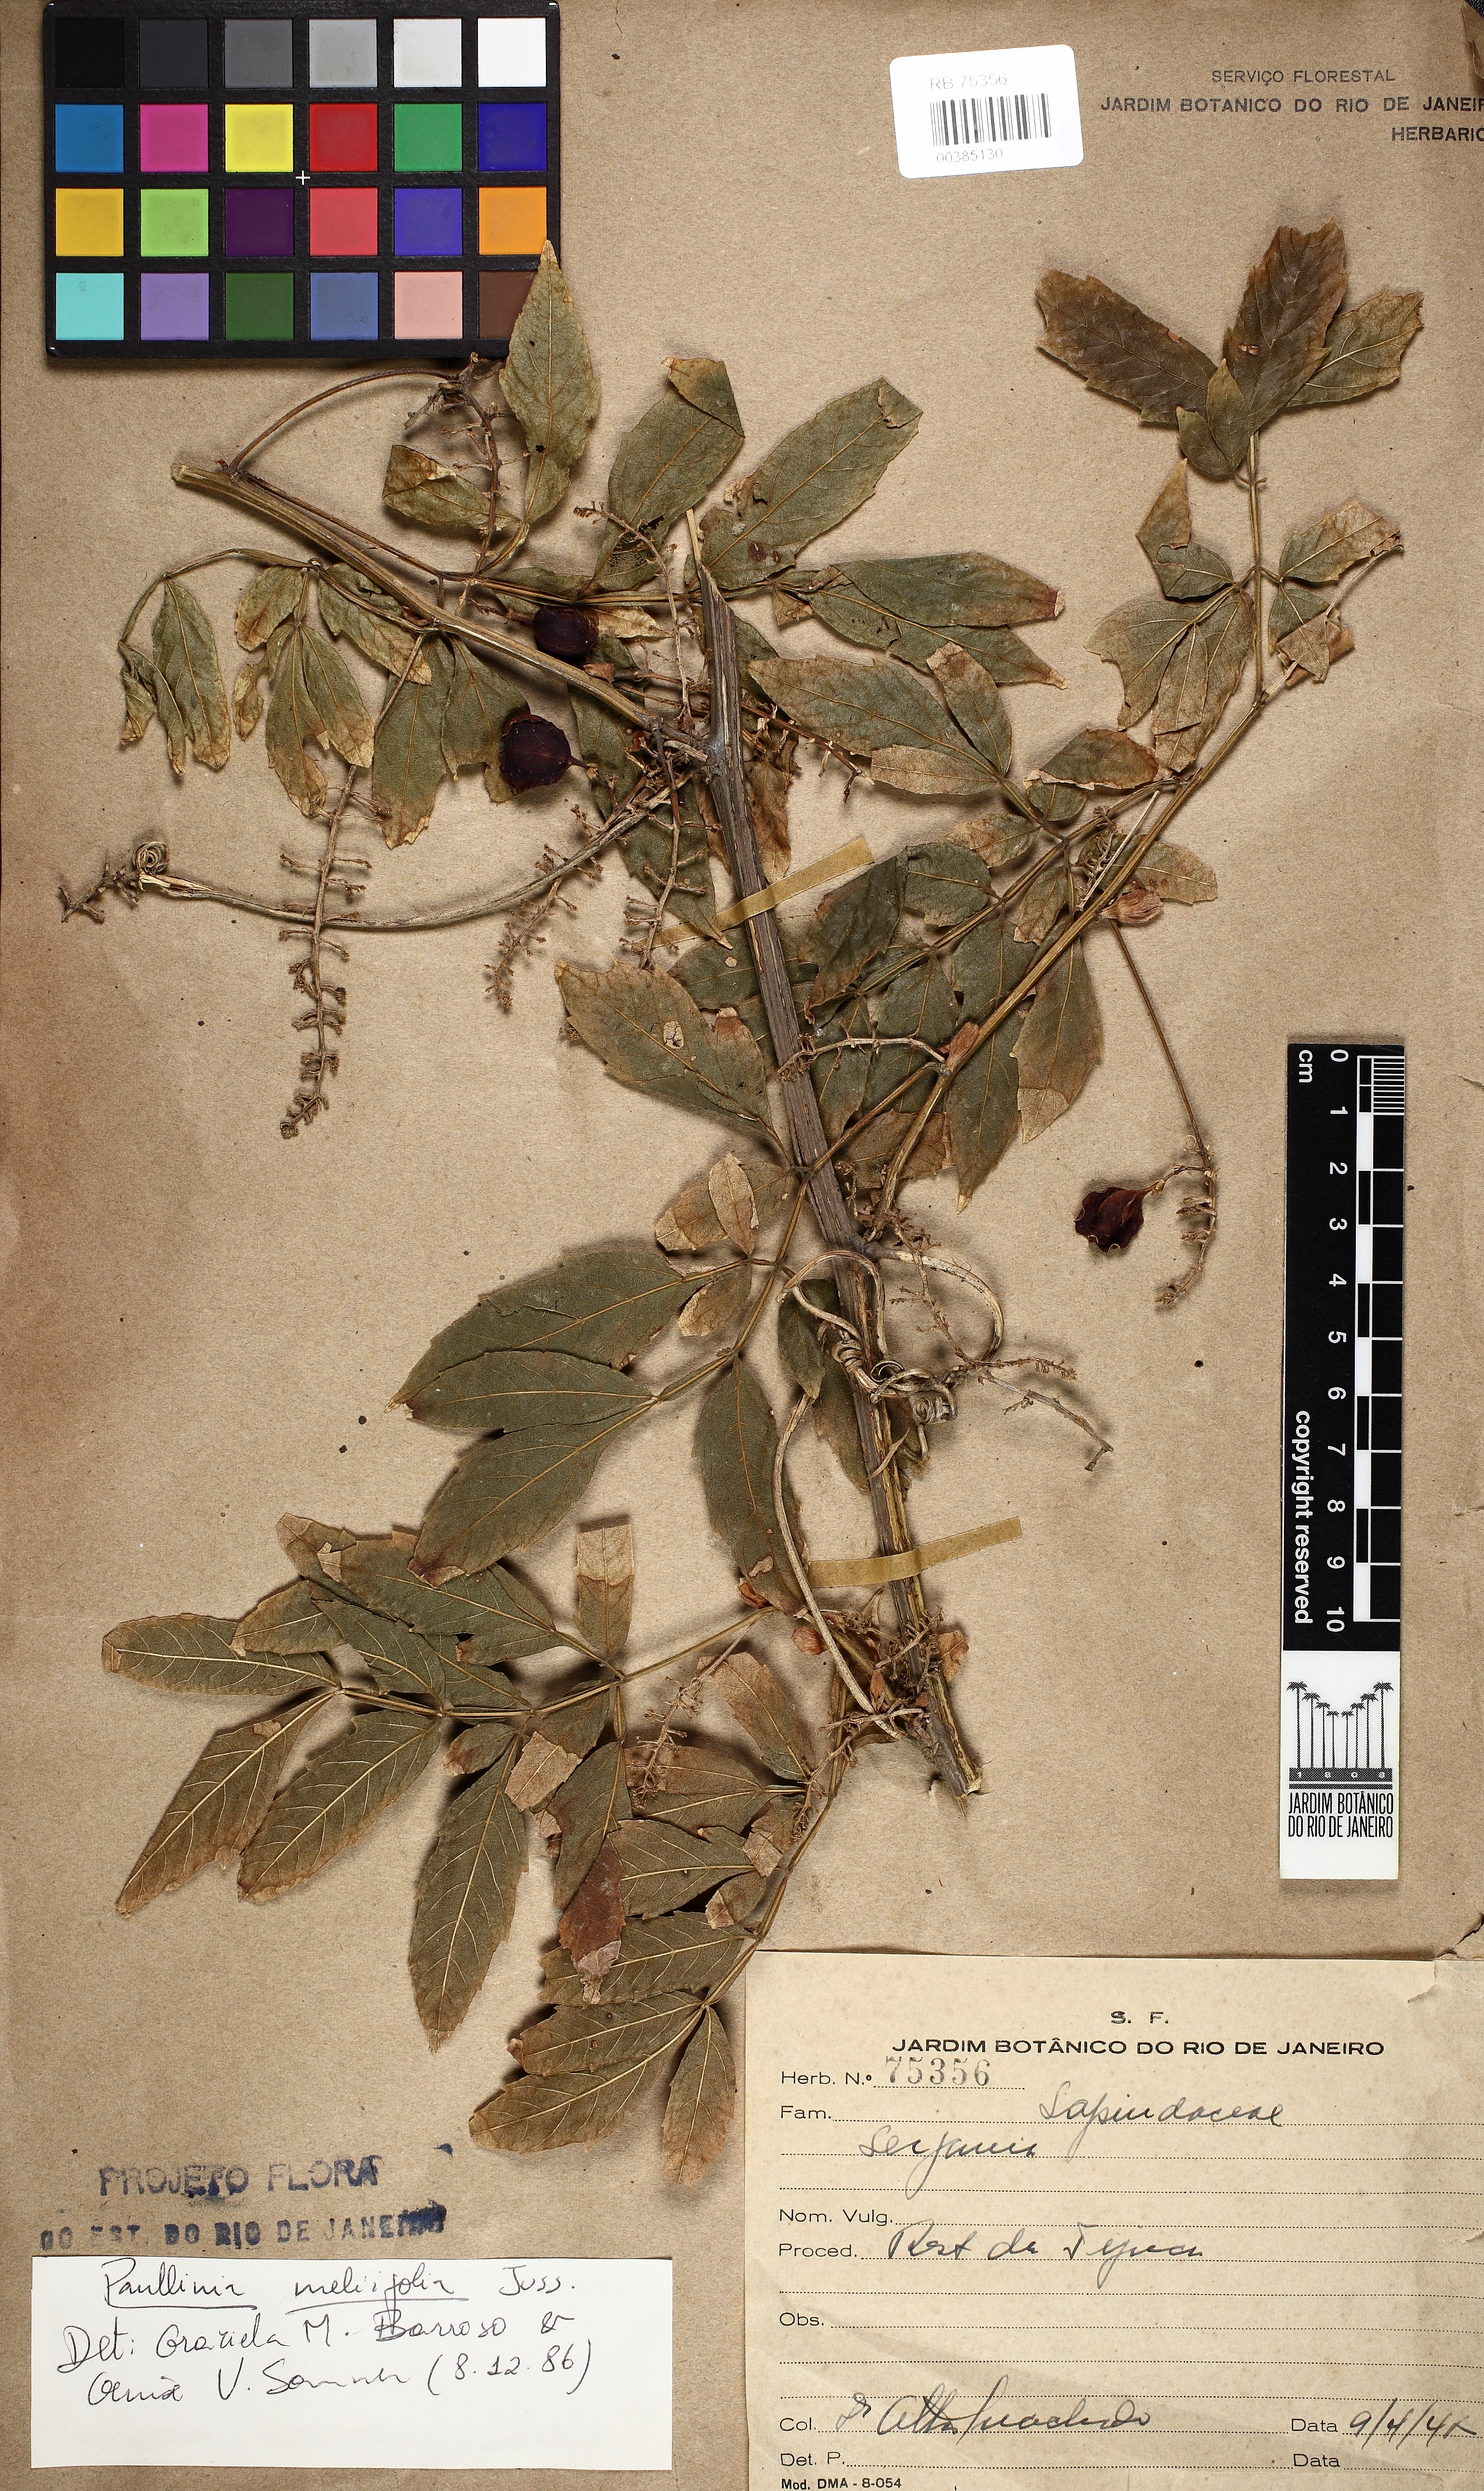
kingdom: Plantae
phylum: Tracheophyta
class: Magnoliopsida
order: Sapindales
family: Sapindaceae
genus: Paullinia
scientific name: Paullinia meliifolia
